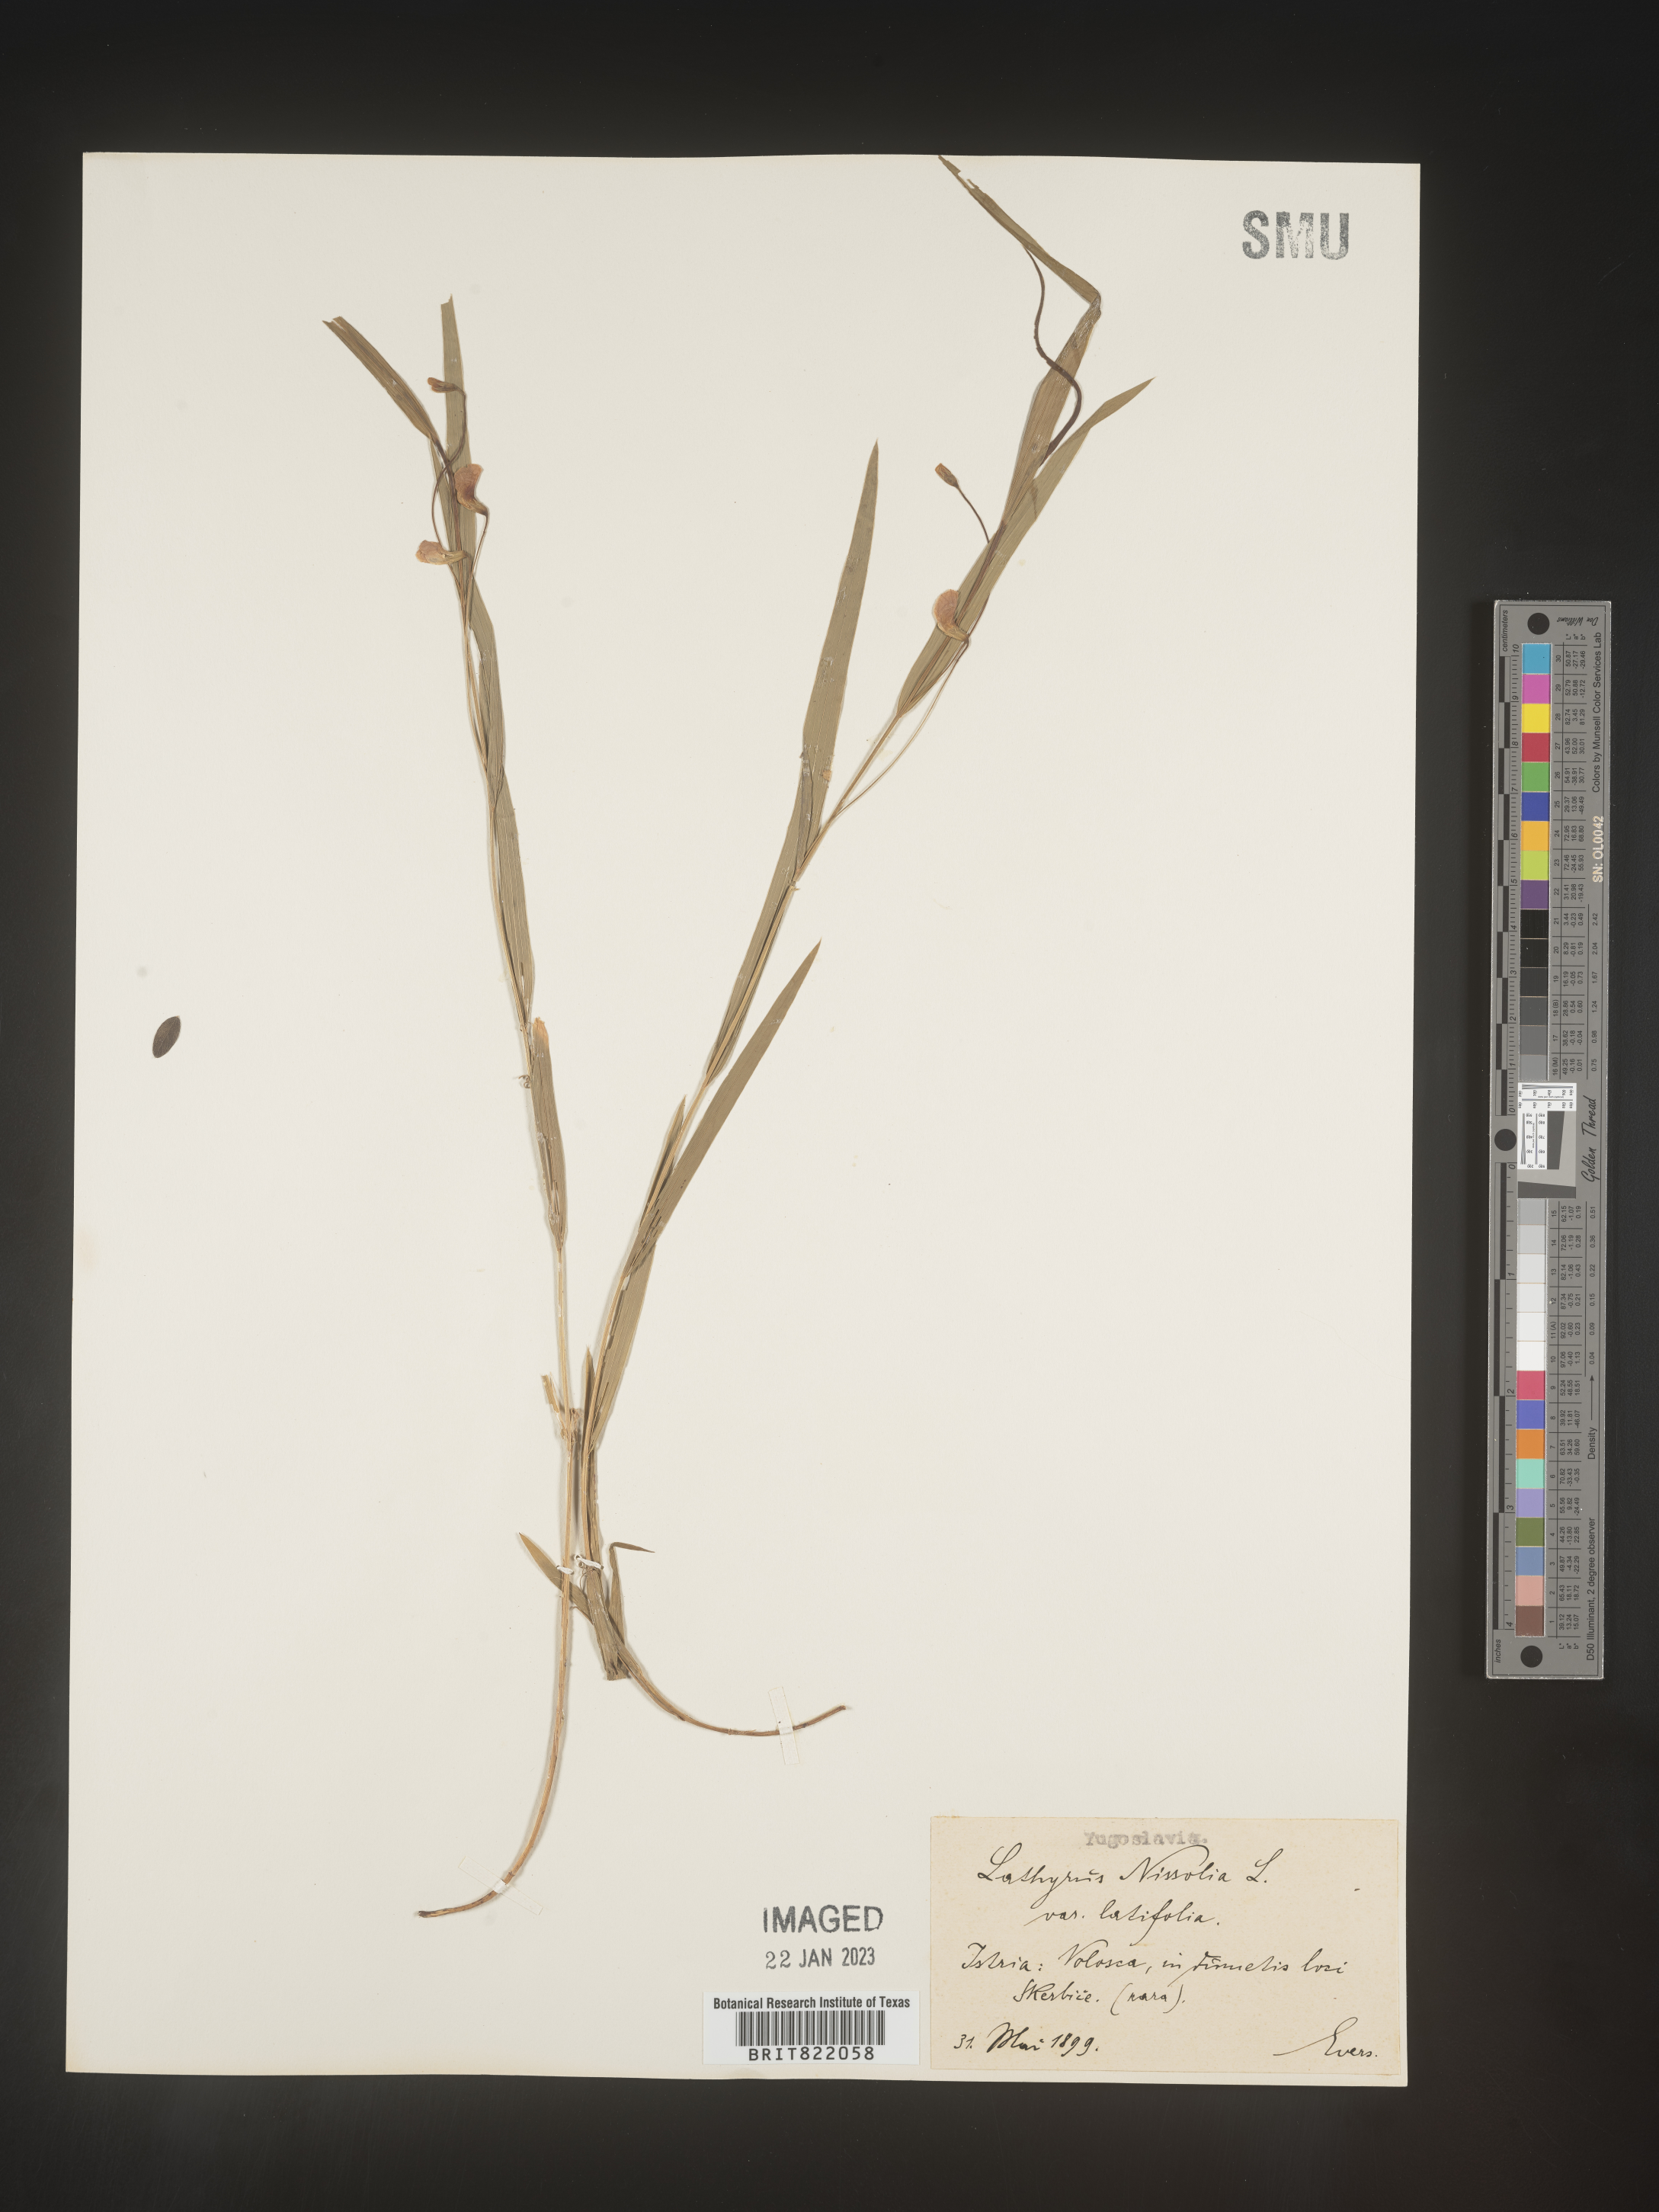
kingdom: Plantae
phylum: Tracheophyta
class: Magnoliopsida
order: Fabales
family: Fabaceae
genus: Lathyrus
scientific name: Lathyrus
